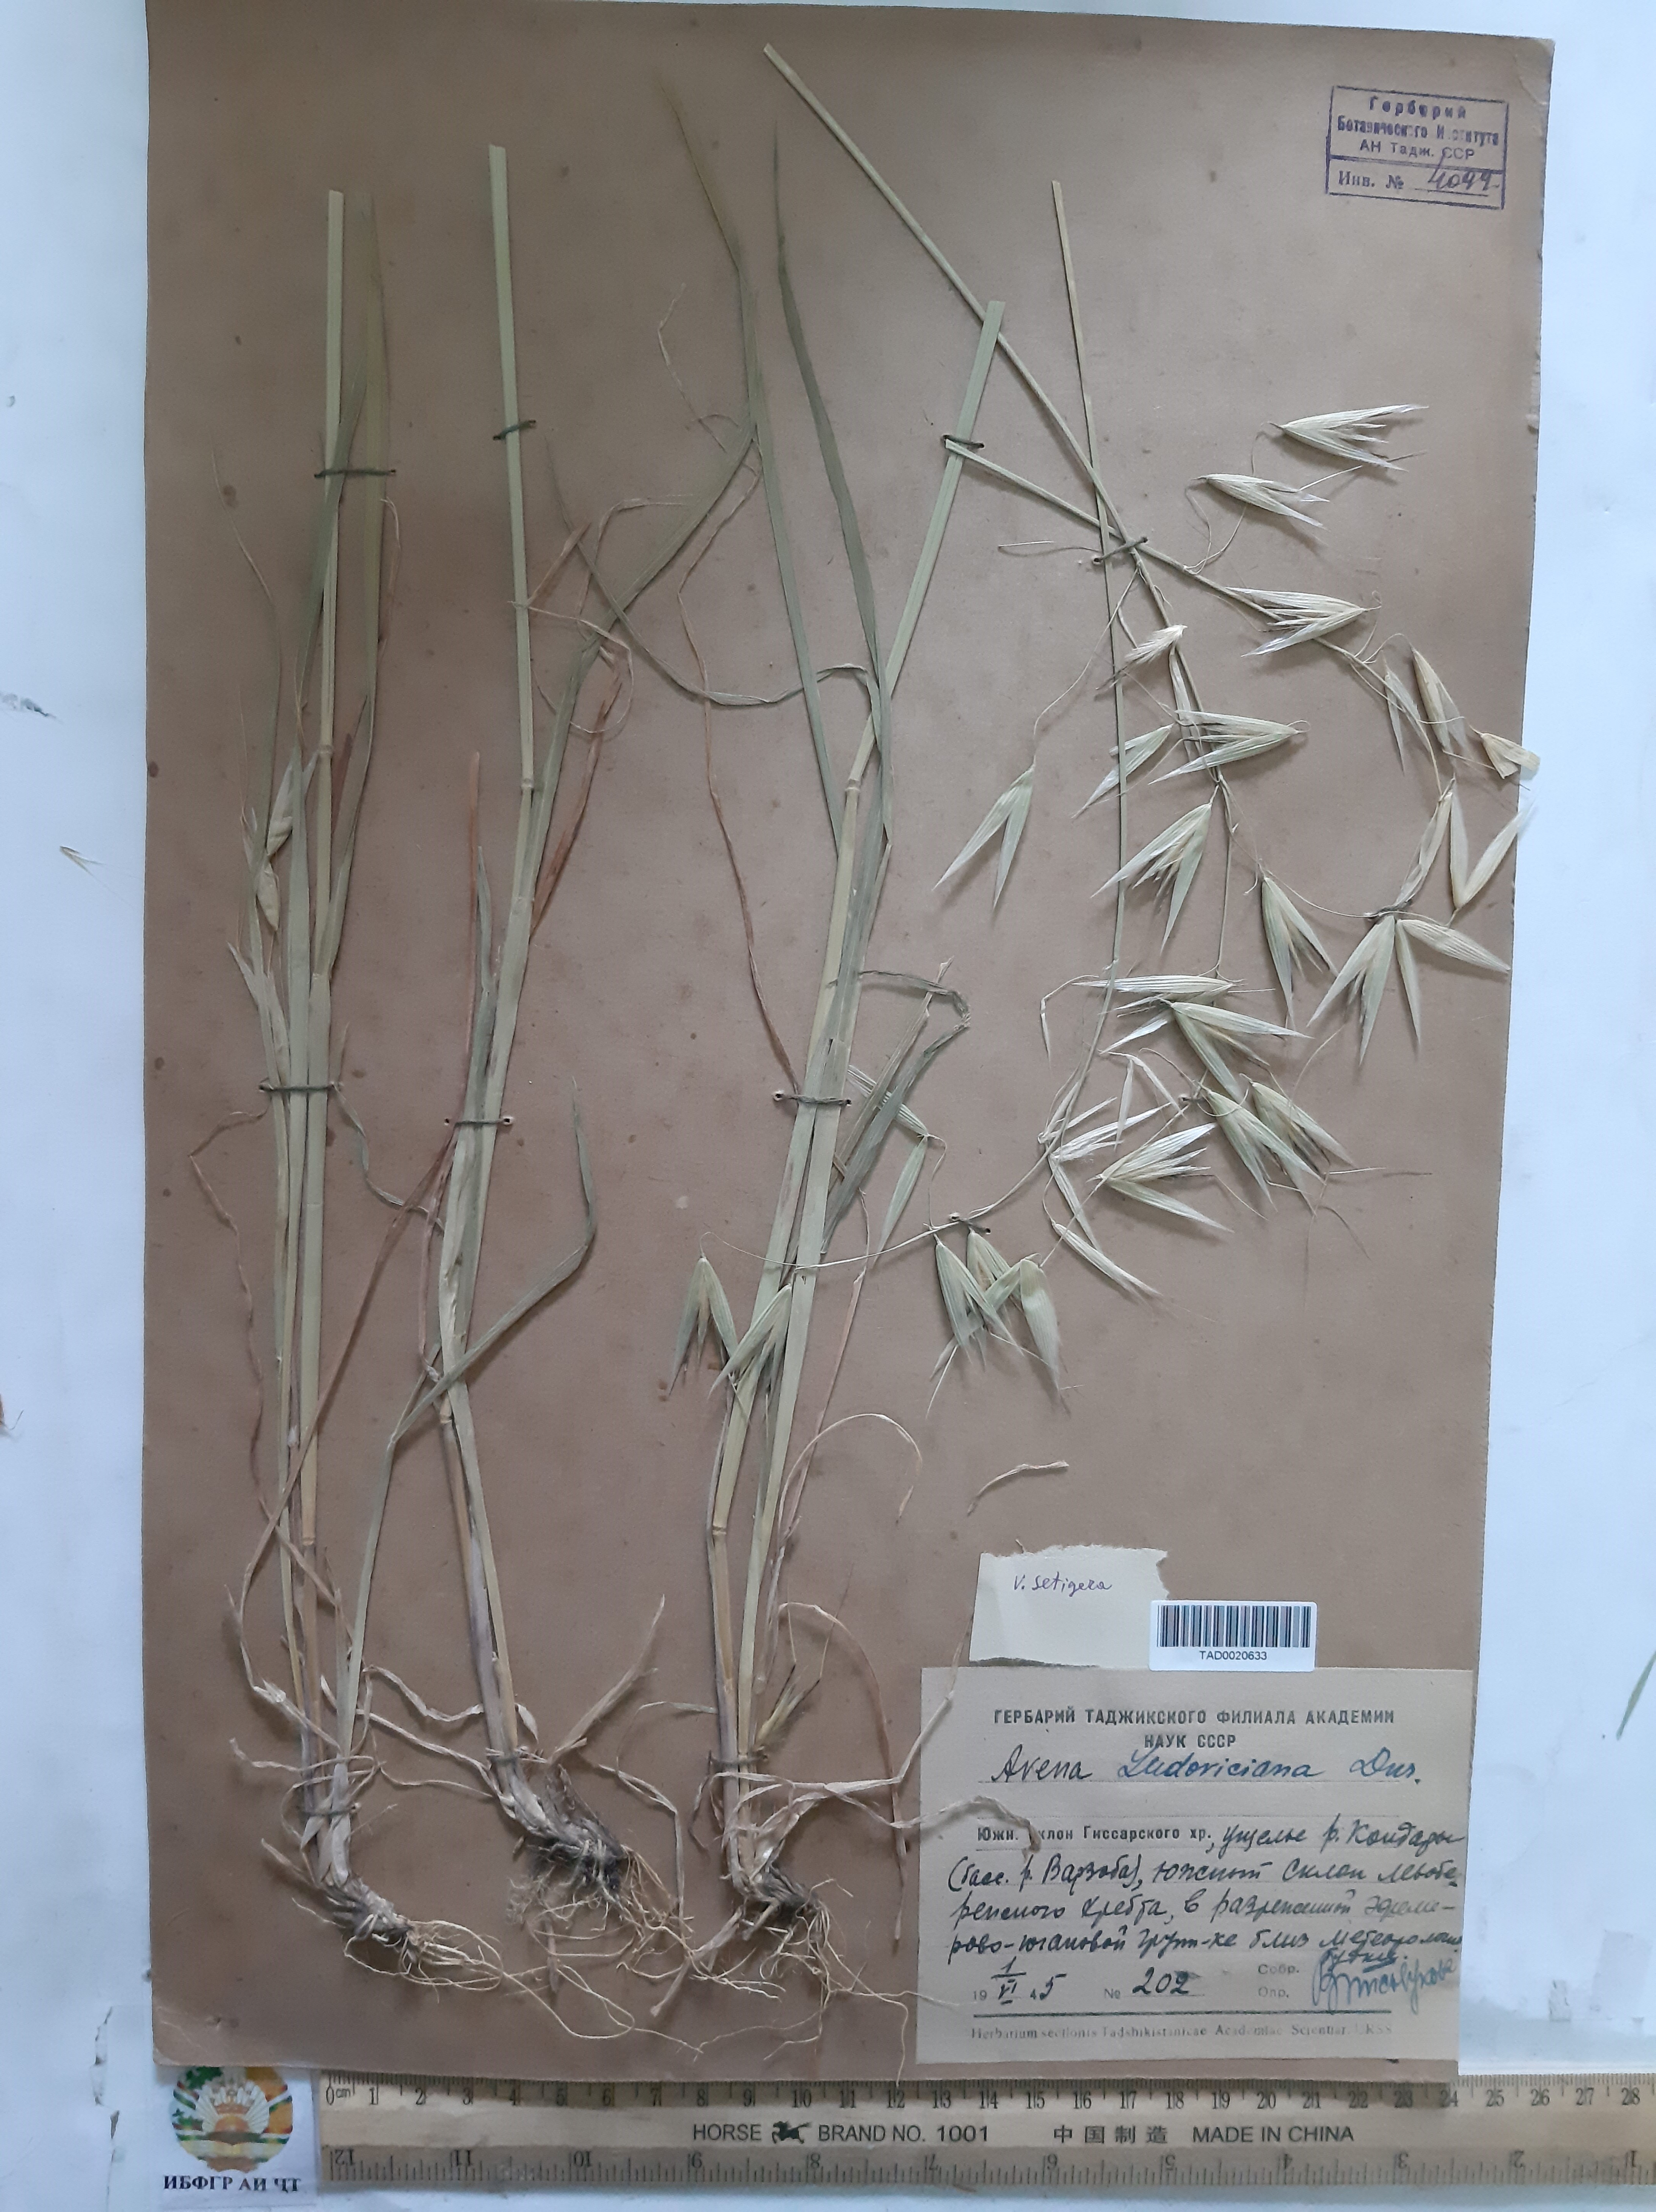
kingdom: Plantae
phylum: Tracheophyta
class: Liliopsida
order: Poales
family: Poaceae
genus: Avena
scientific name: Avena sterilis
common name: Animated oat
